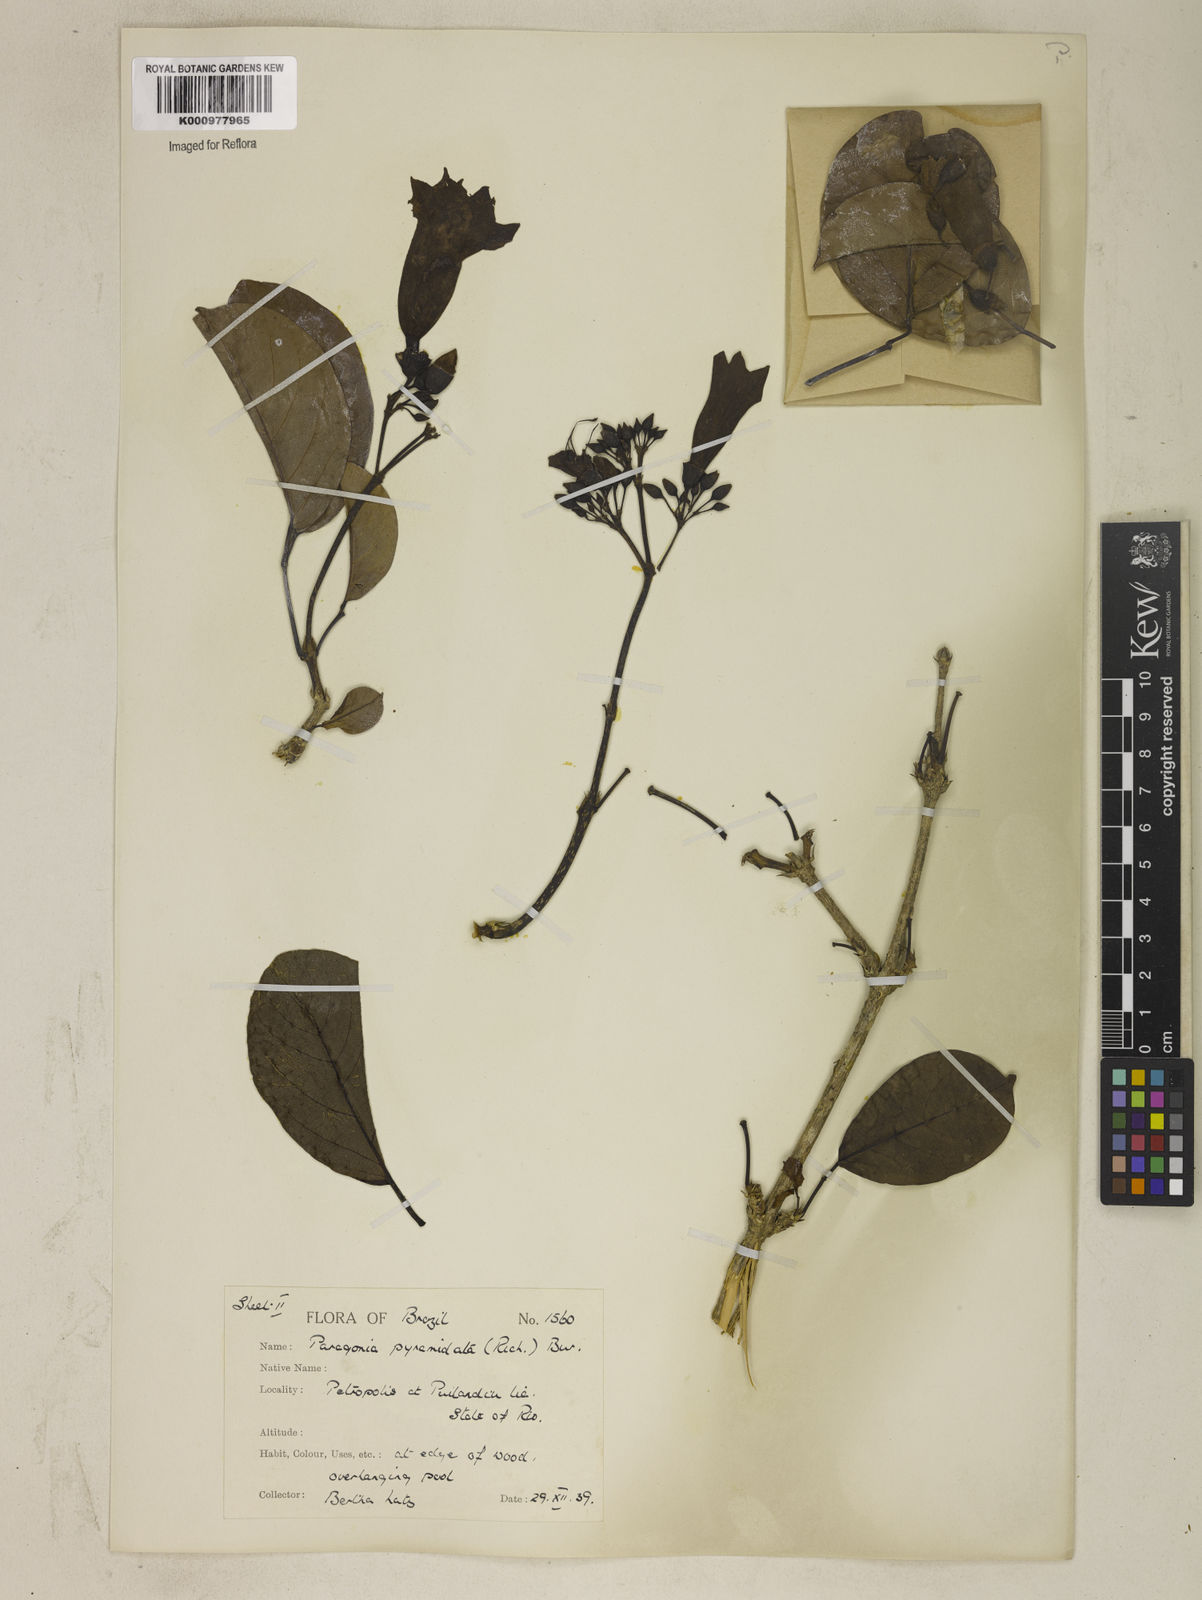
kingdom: Plantae
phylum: Tracheophyta
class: Magnoliopsida
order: Lamiales
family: Bignoniaceae
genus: Tanaecium
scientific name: Tanaecium pyramidatum
